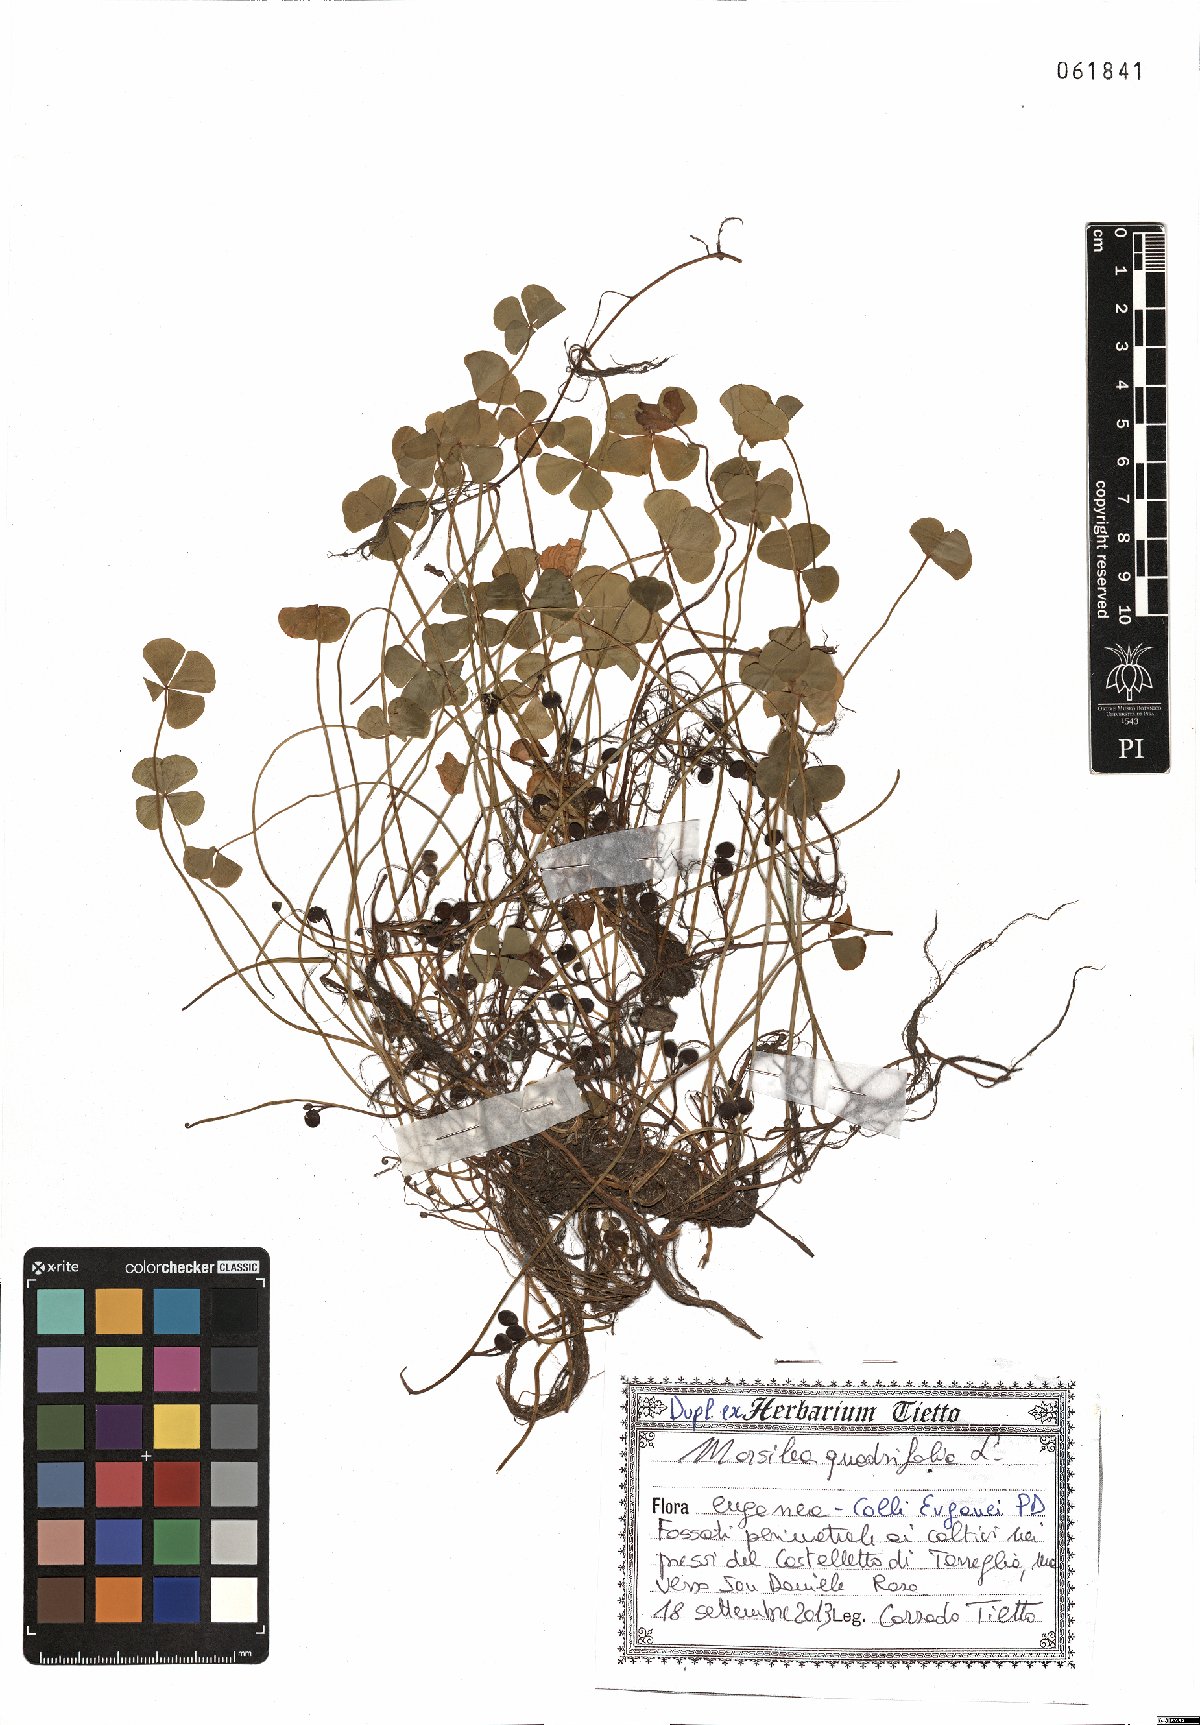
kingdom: Plantae
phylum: Tracheophyta
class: Polypodiopsida
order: Salviniales
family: Marsileaceae
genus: Marsilea
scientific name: Marsilea quadrifolia
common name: Water shamrock
